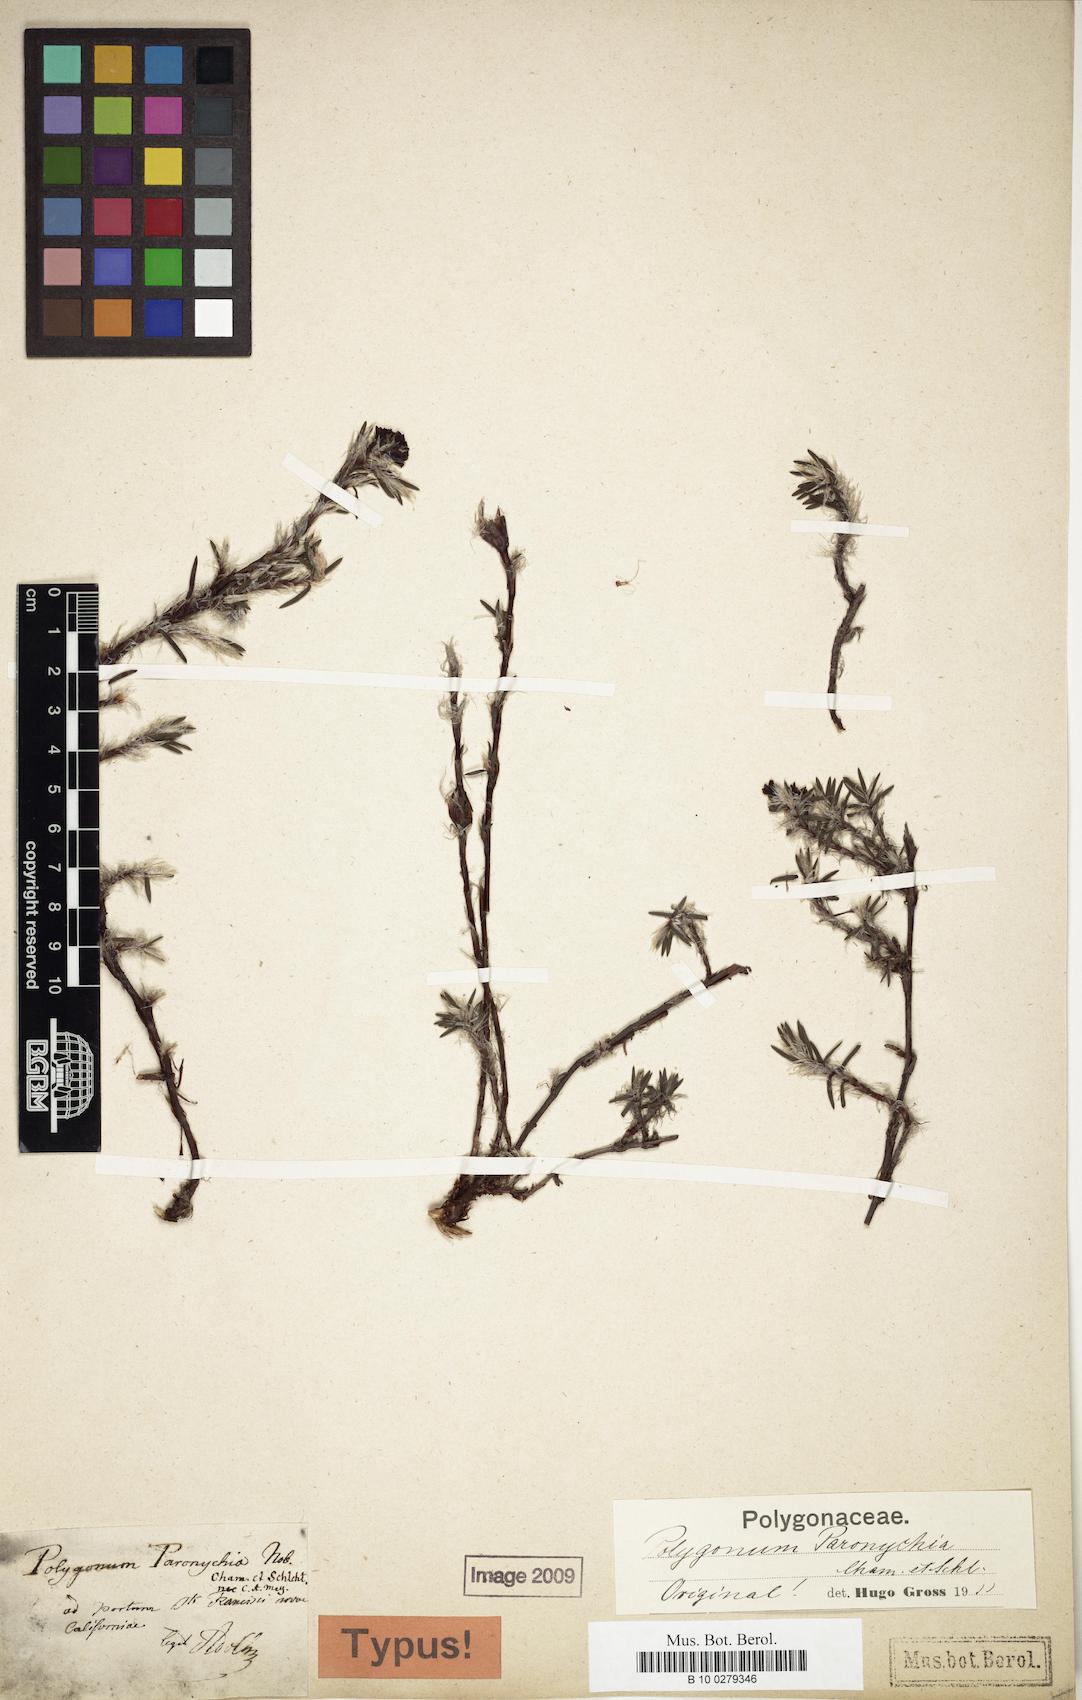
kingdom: Plantae
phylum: Tracheophyta
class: Magnoliopsida
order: Caryophyllales
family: Polygonaceae
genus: Polygonum
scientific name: Polygonum paronychia
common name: Dune knotweed
